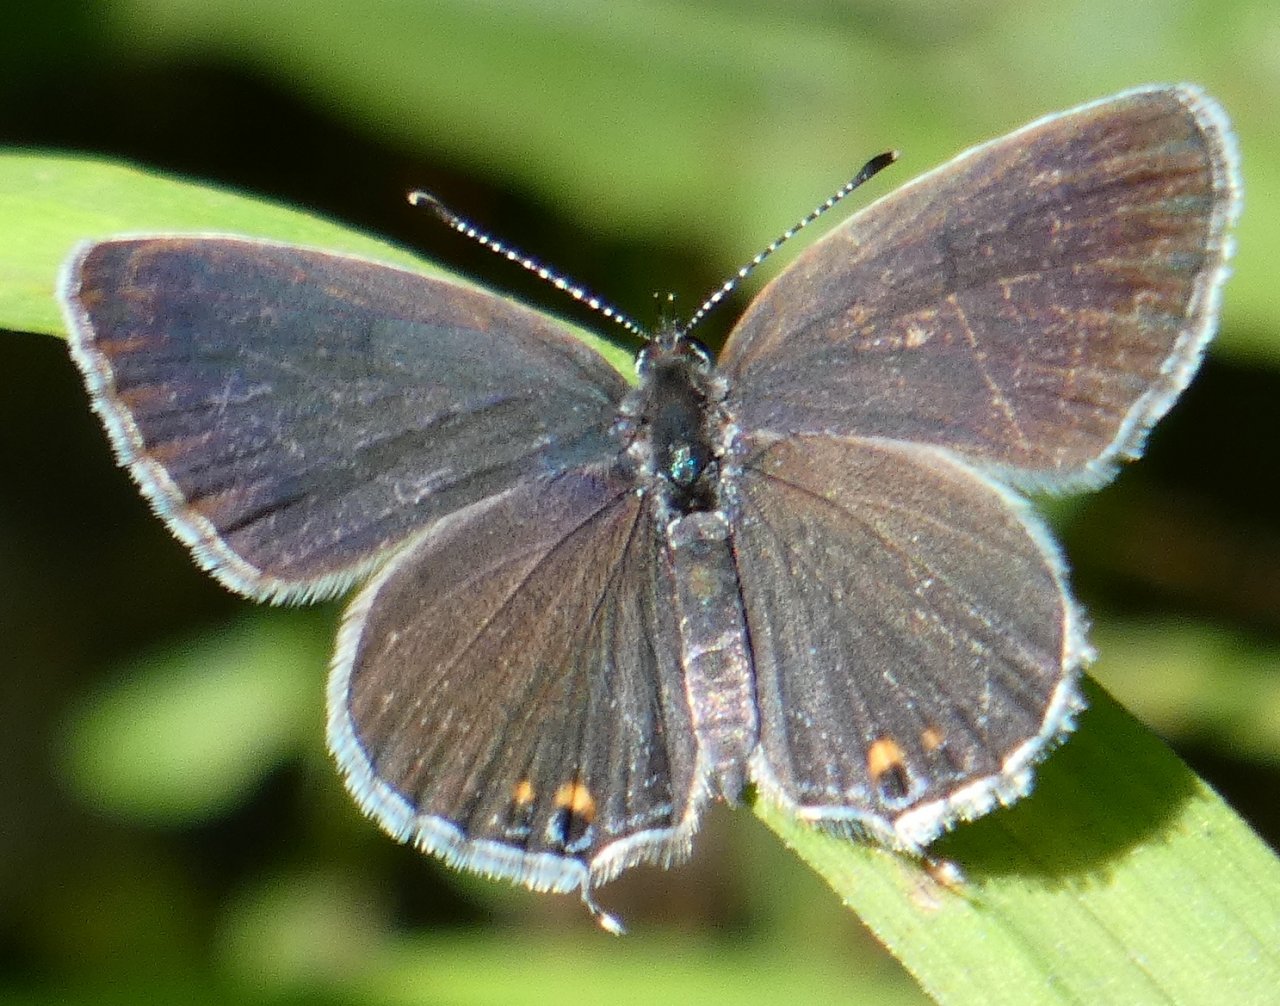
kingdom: Animalia
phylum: Arthropoda
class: Insecta
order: Lepidoptera
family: Lycaenidae
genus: Elkalyce
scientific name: Elkalyce comyntas
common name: Eastern Tailed-Blue
